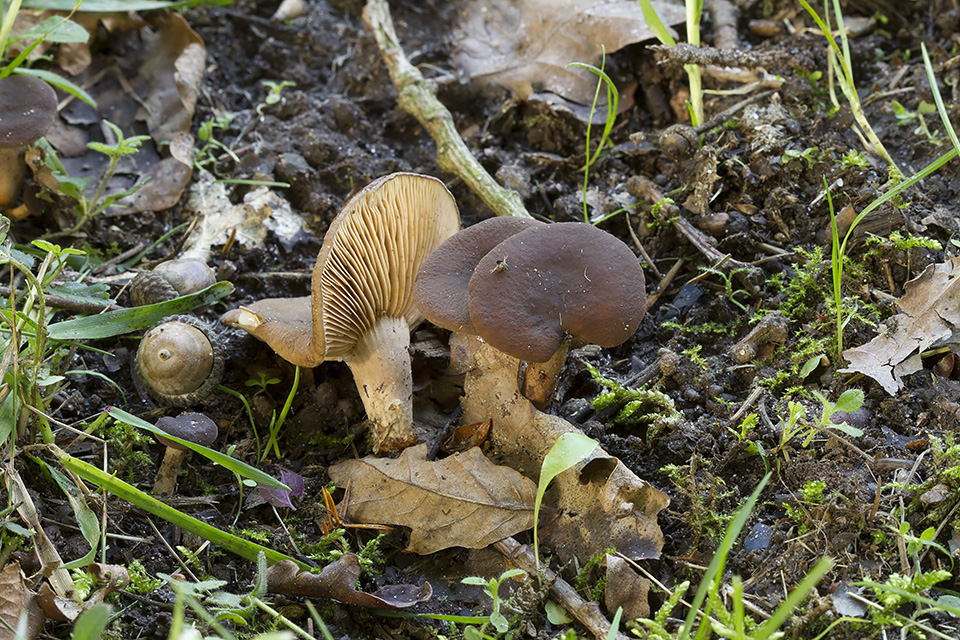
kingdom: Fungi
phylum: Basidiomycota
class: Agaricomycetes
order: Russulales
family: Russulaceae
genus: Lactarius
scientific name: Lactarius serifluus
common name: tæge-mælkehat
